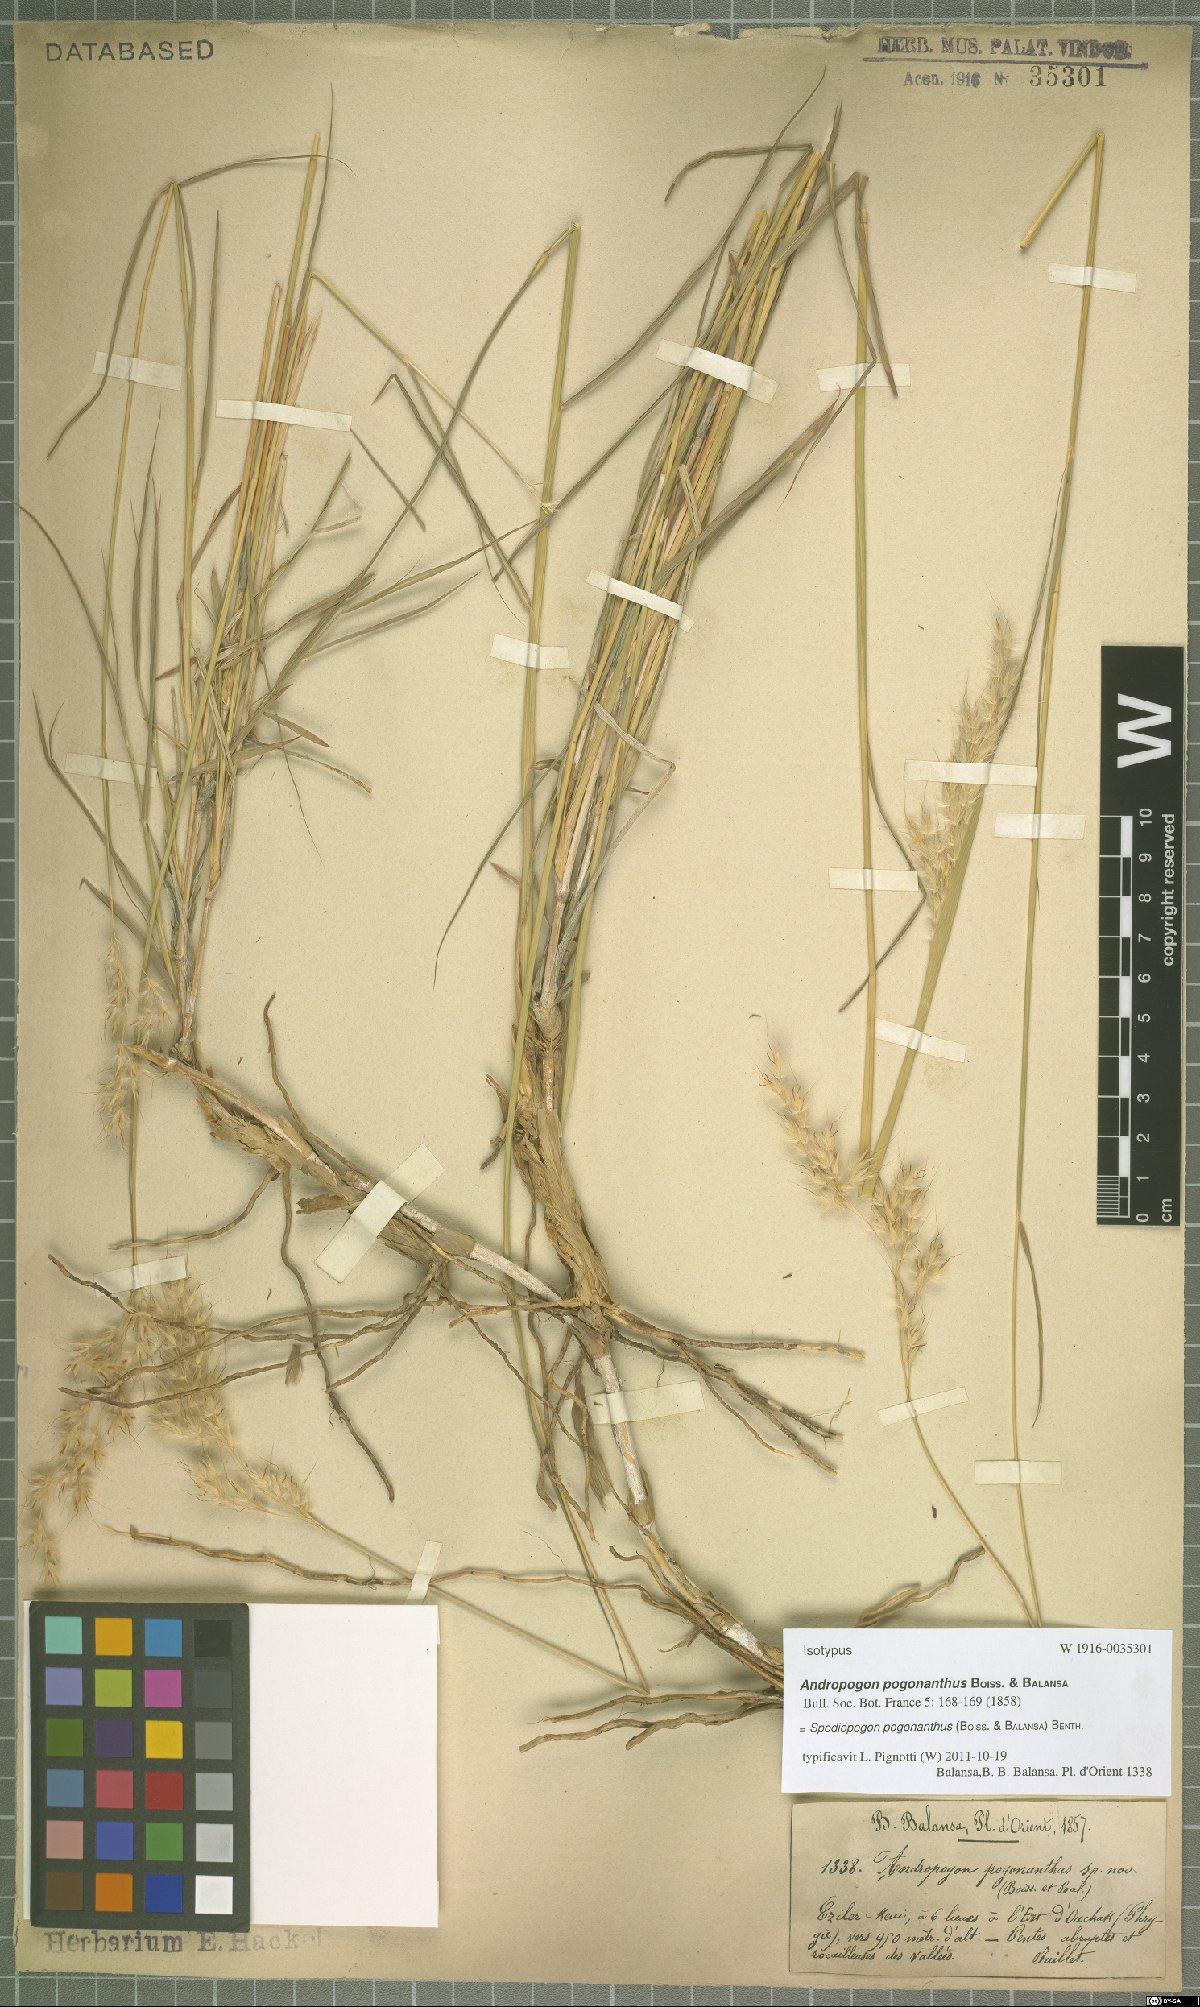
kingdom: Plantae
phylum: Tracheophyta
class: Liliopsida
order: Poales
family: Poaceae
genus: Spodiopogon
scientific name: Spodiopogon pogonanthus
